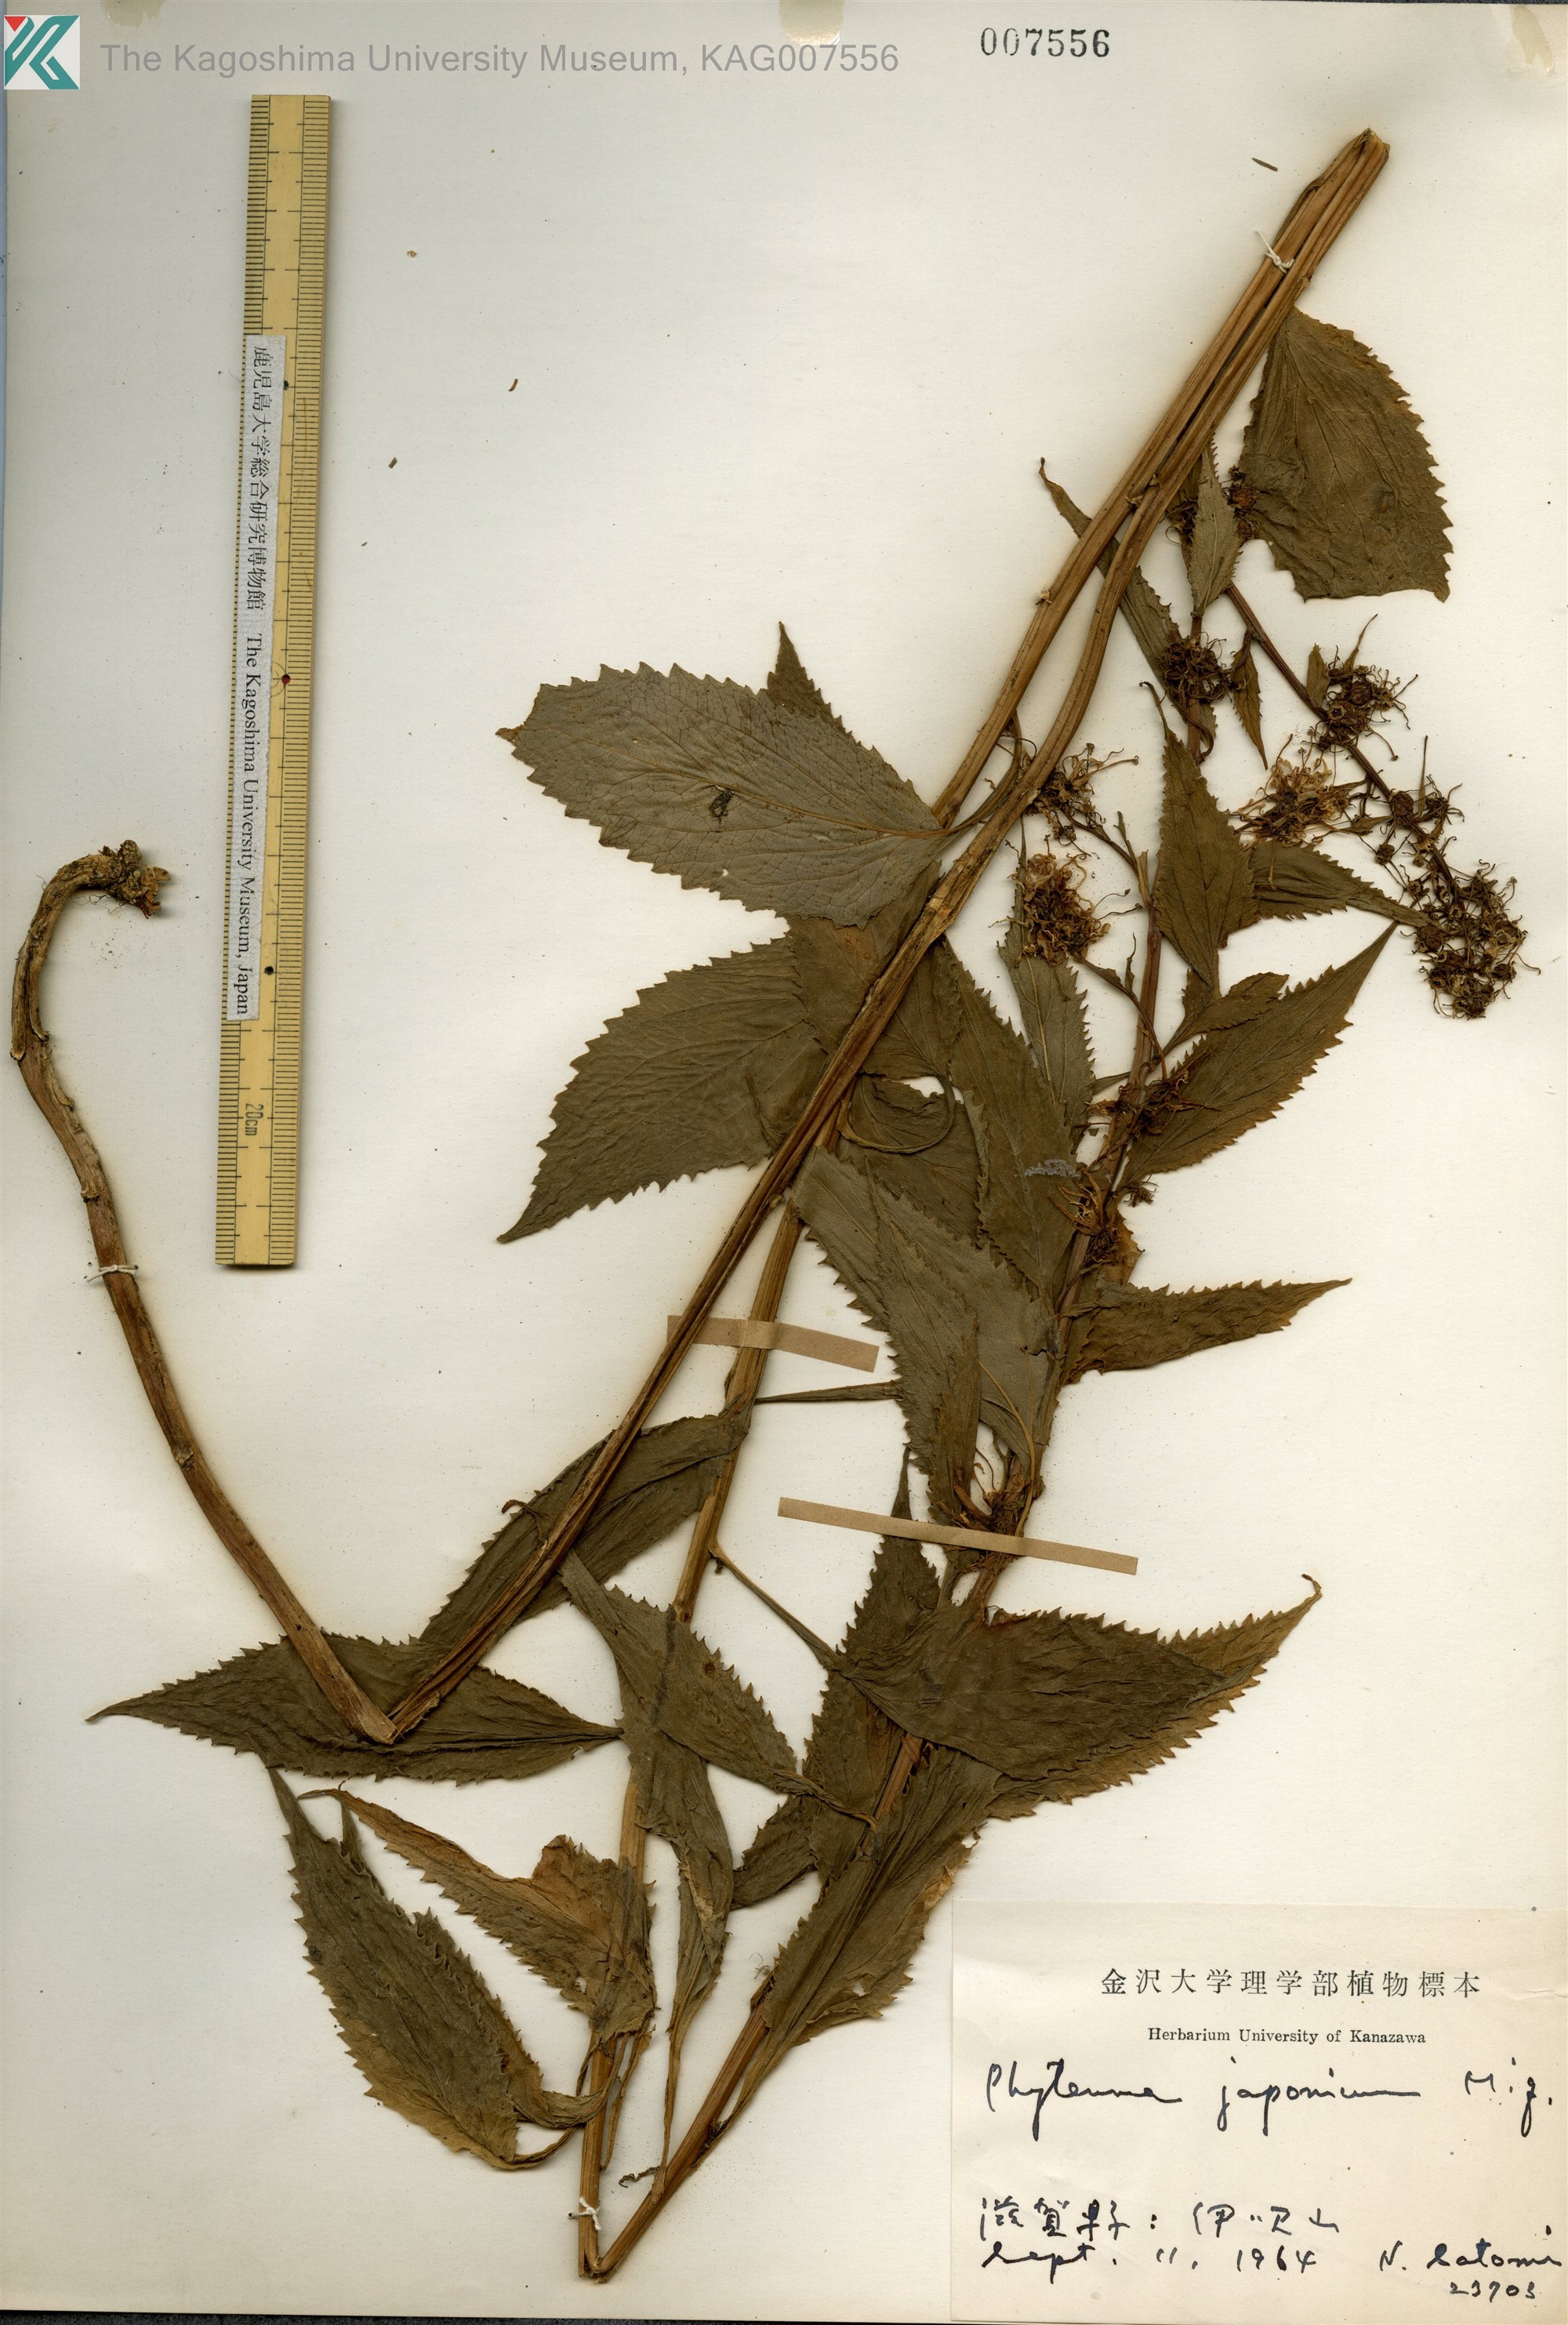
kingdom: Plantae
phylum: Tracheophyta
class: Magnoliopsida
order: Asterales
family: Campanulaceae
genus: Asyneuma
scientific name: Asyneuma japonicum
